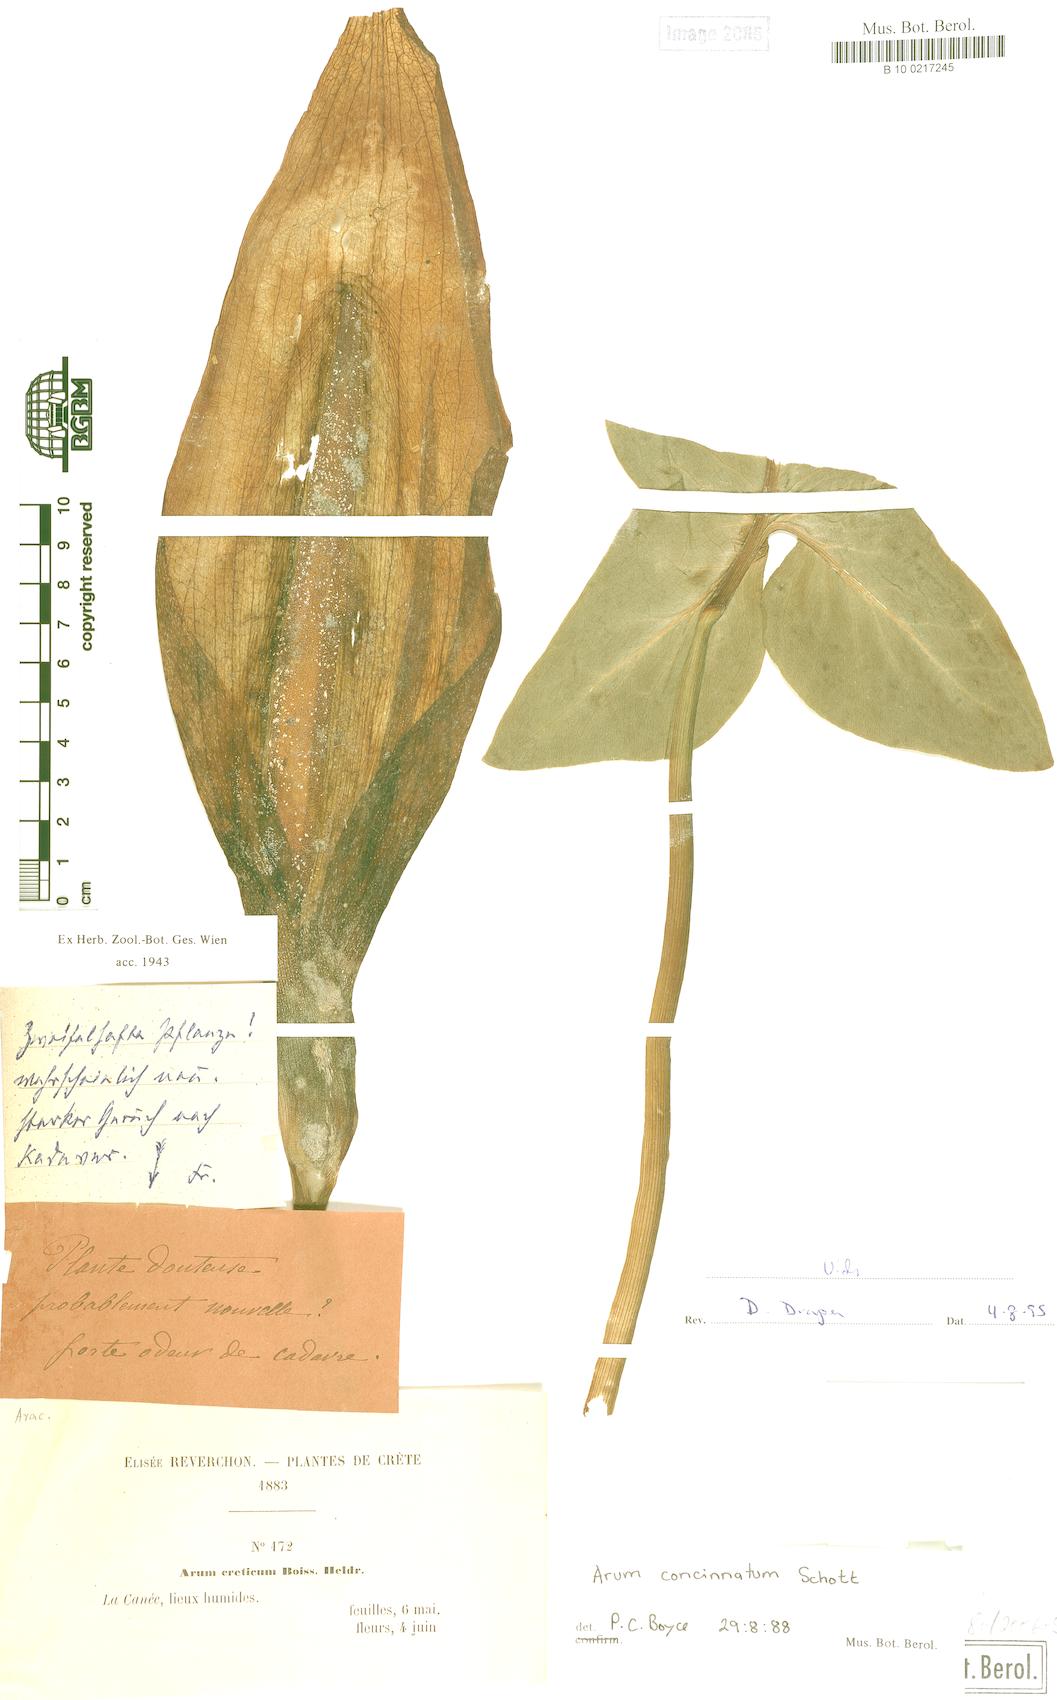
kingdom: Plantae
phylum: Tracheophyta
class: Liliopsida
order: Alismatales
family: Araceae
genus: Arum
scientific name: Arum concinnatum
